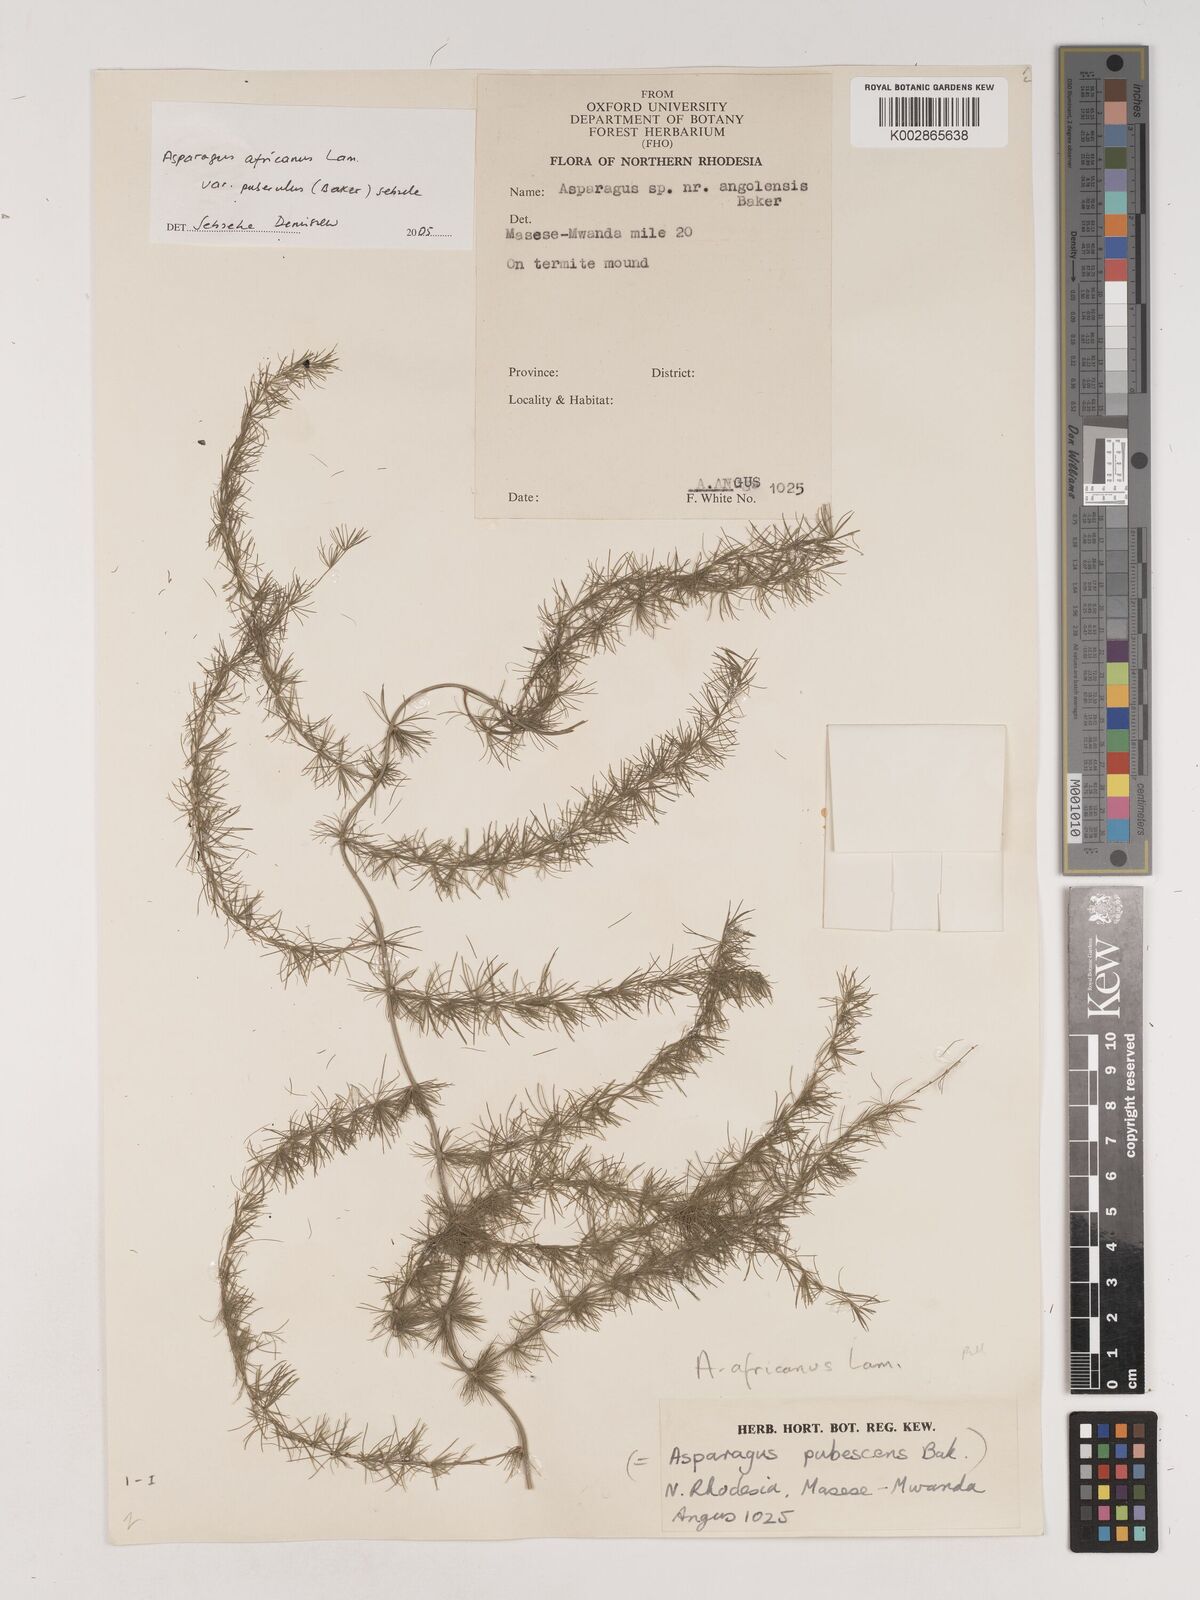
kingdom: Plantae
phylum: Tracheophyta
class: Liliopsida
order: Asparagales
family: Asparagaceae
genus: Asparagus
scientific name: Asparagus africanus
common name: Asparagus-fern
